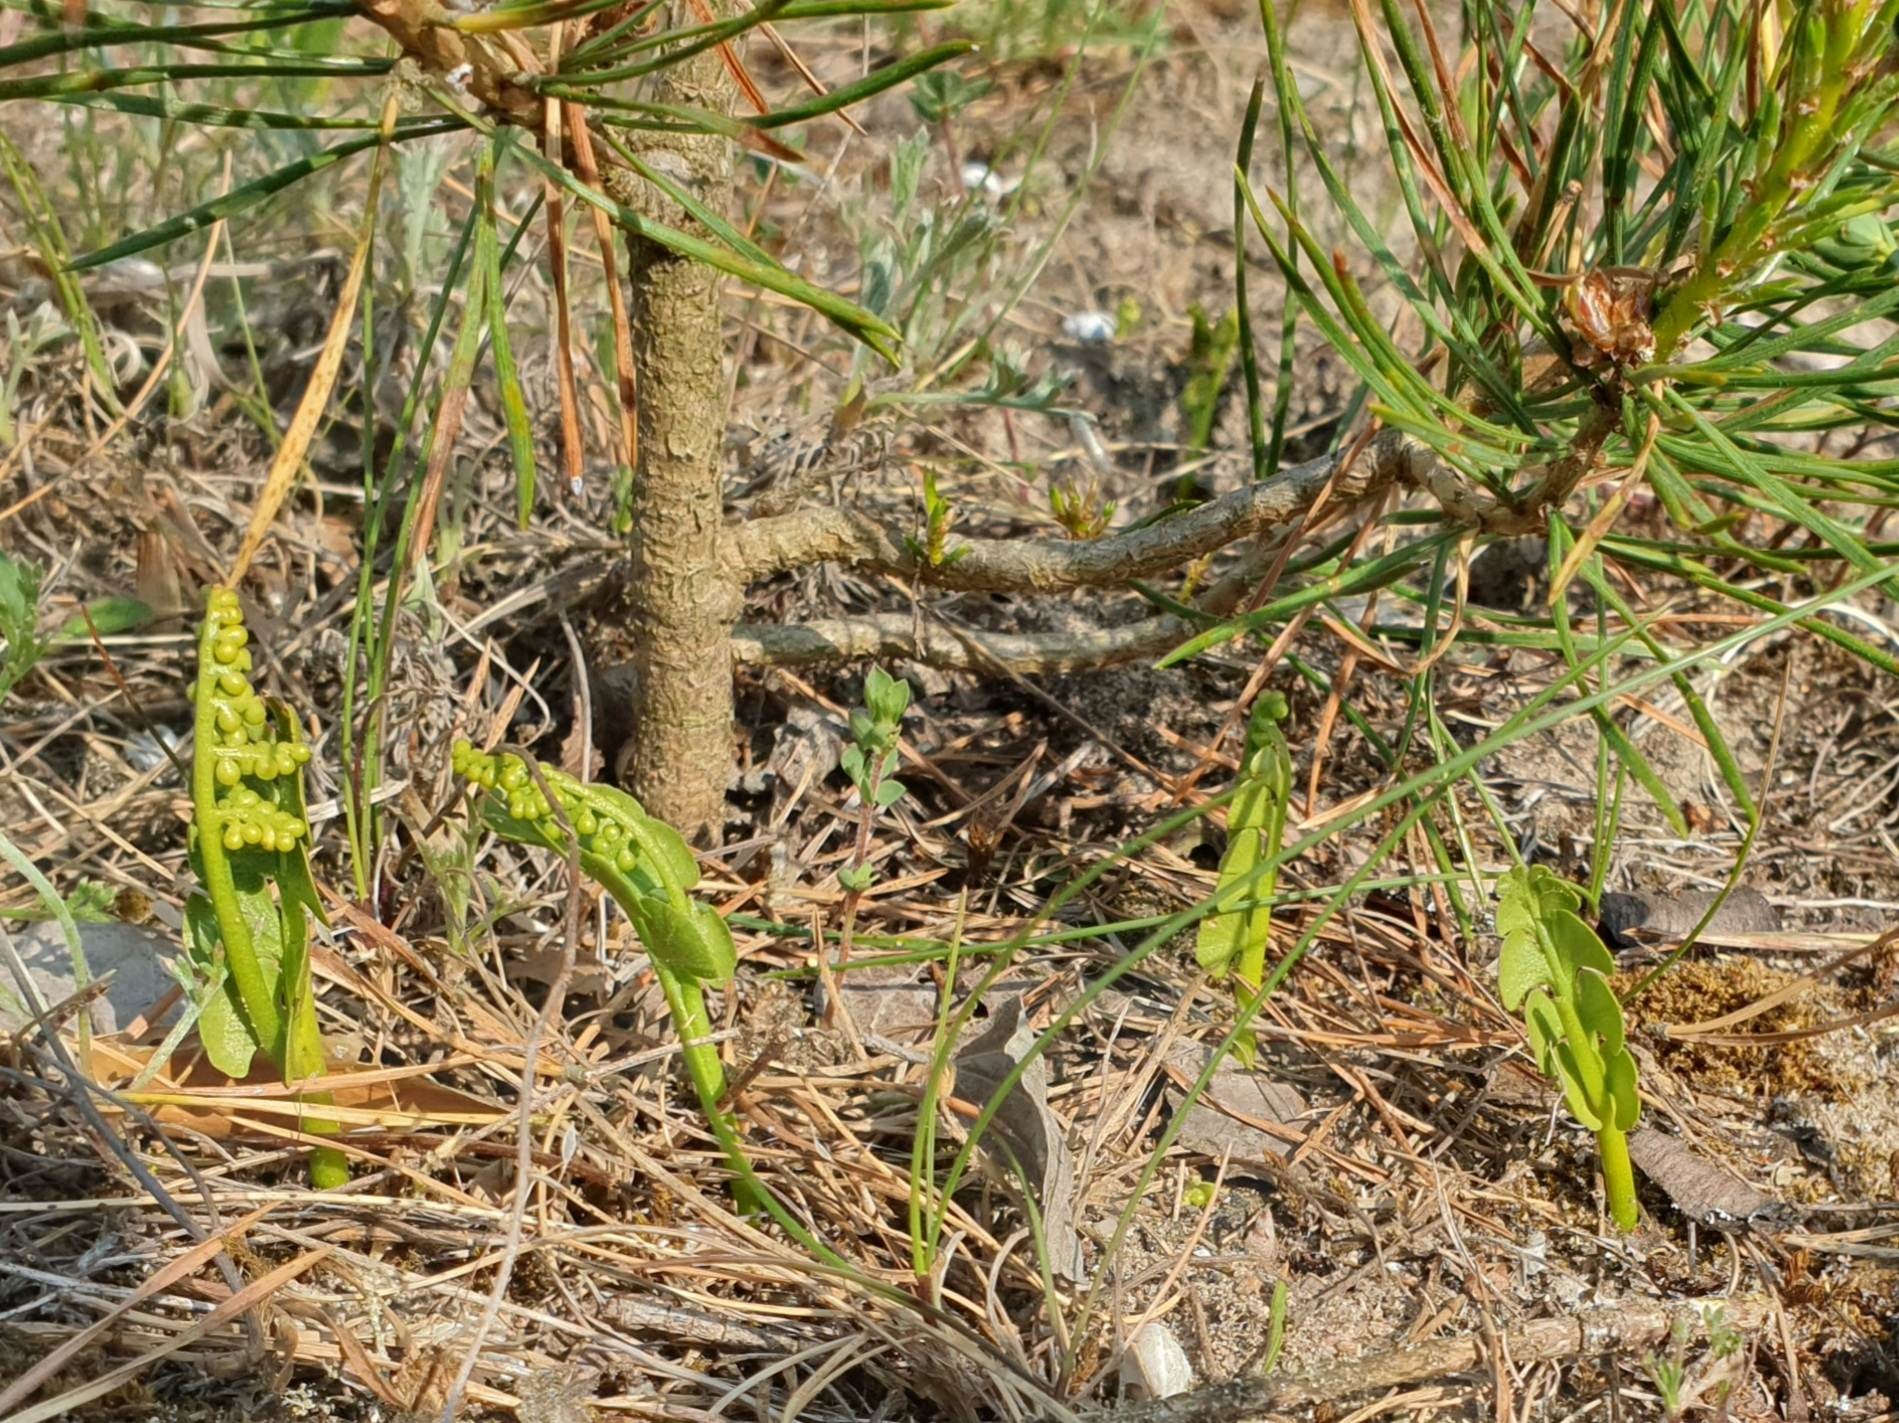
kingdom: Plantae
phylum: Tracheophyta
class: Polypodiopsida
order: Ophioglossales
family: Ophioglossaceae
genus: Botrychium
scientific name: Botrychium lunaria
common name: Almindelig månerude
